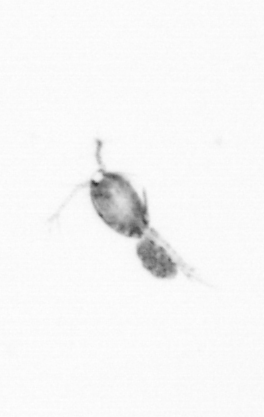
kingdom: Animalia
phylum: Arthropoda
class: Copepoda
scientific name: Copepoda
